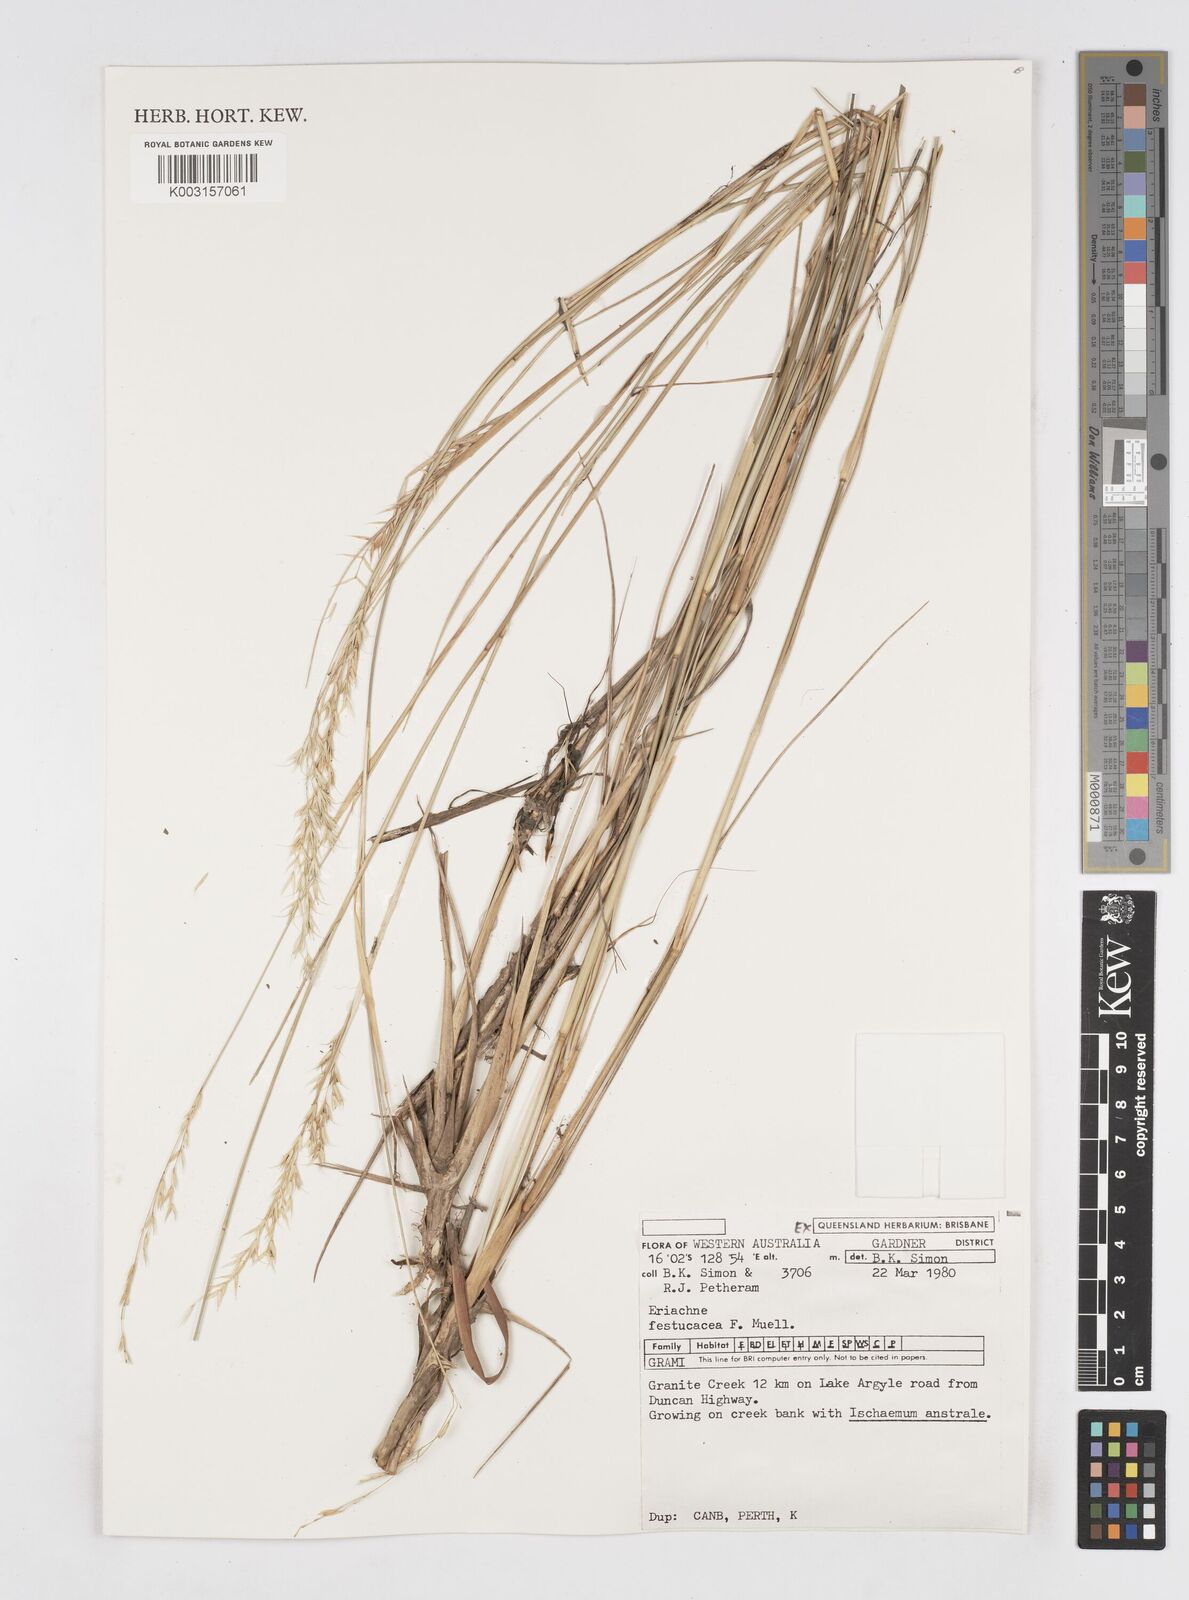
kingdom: Plantae
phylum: Tracheophyta
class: Liliopsida
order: Poales
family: Poaceae
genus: Eriachne
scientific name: Eriachne festucacea
